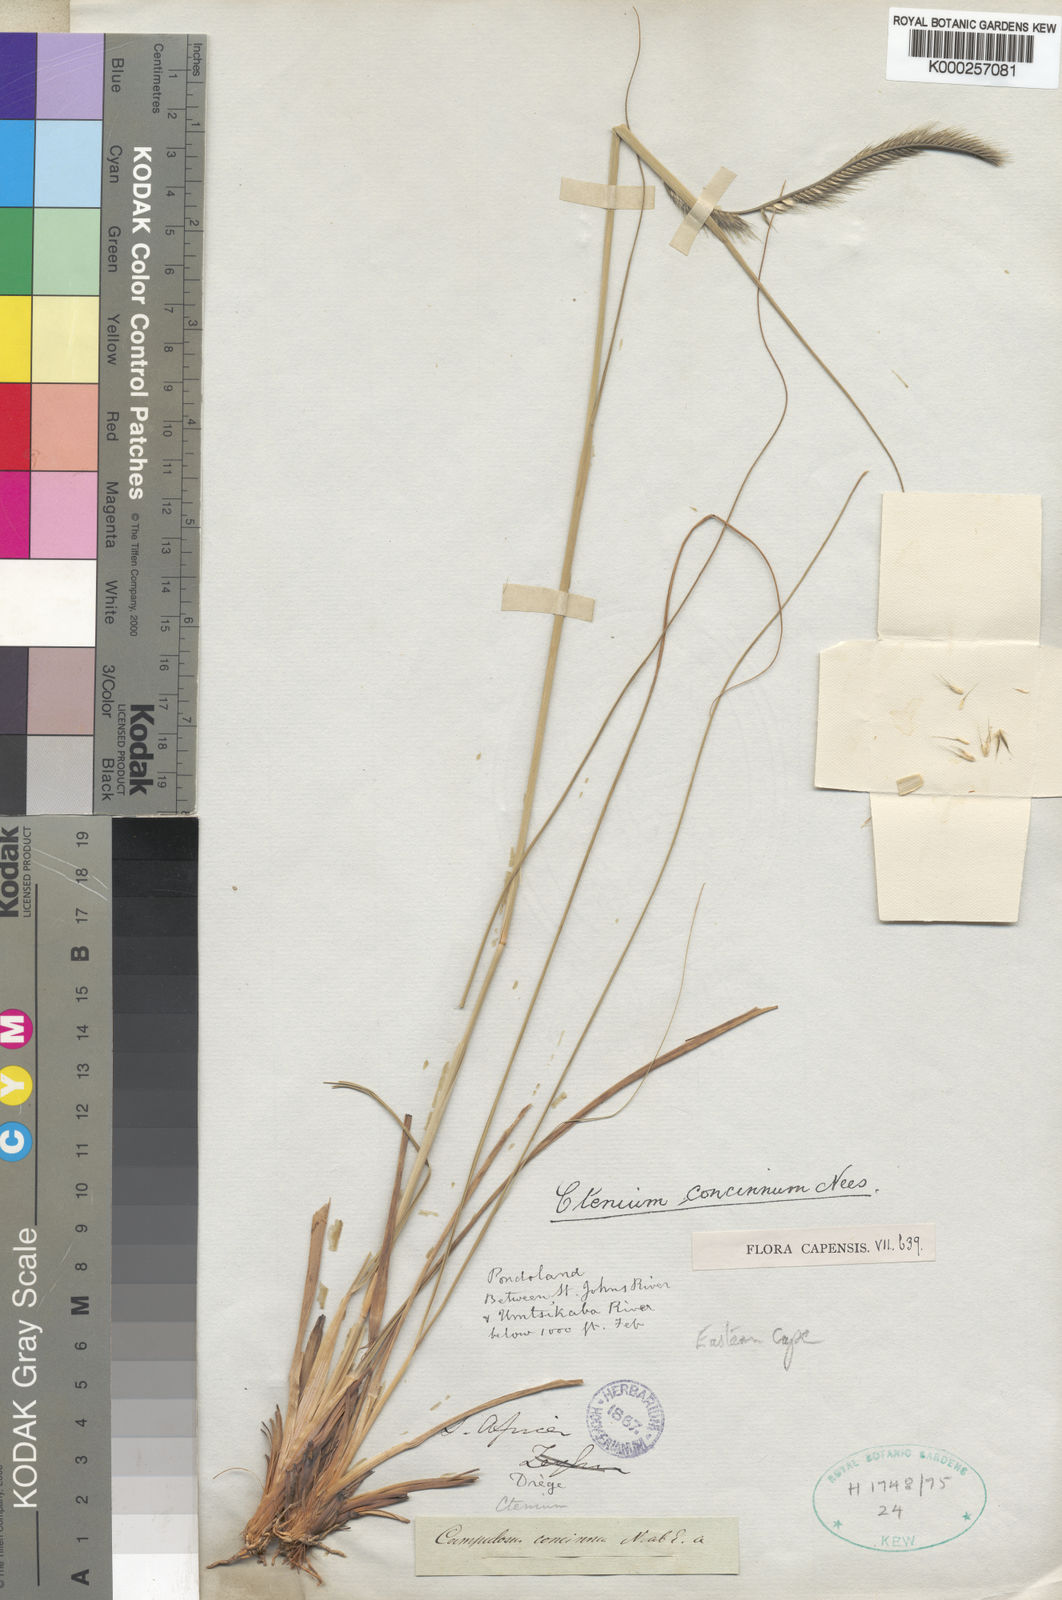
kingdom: Plantae
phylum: Tracheophyta
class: Liliopsida
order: Poales
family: Poaceae
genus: Ctenium
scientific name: Ctenium concinnum
